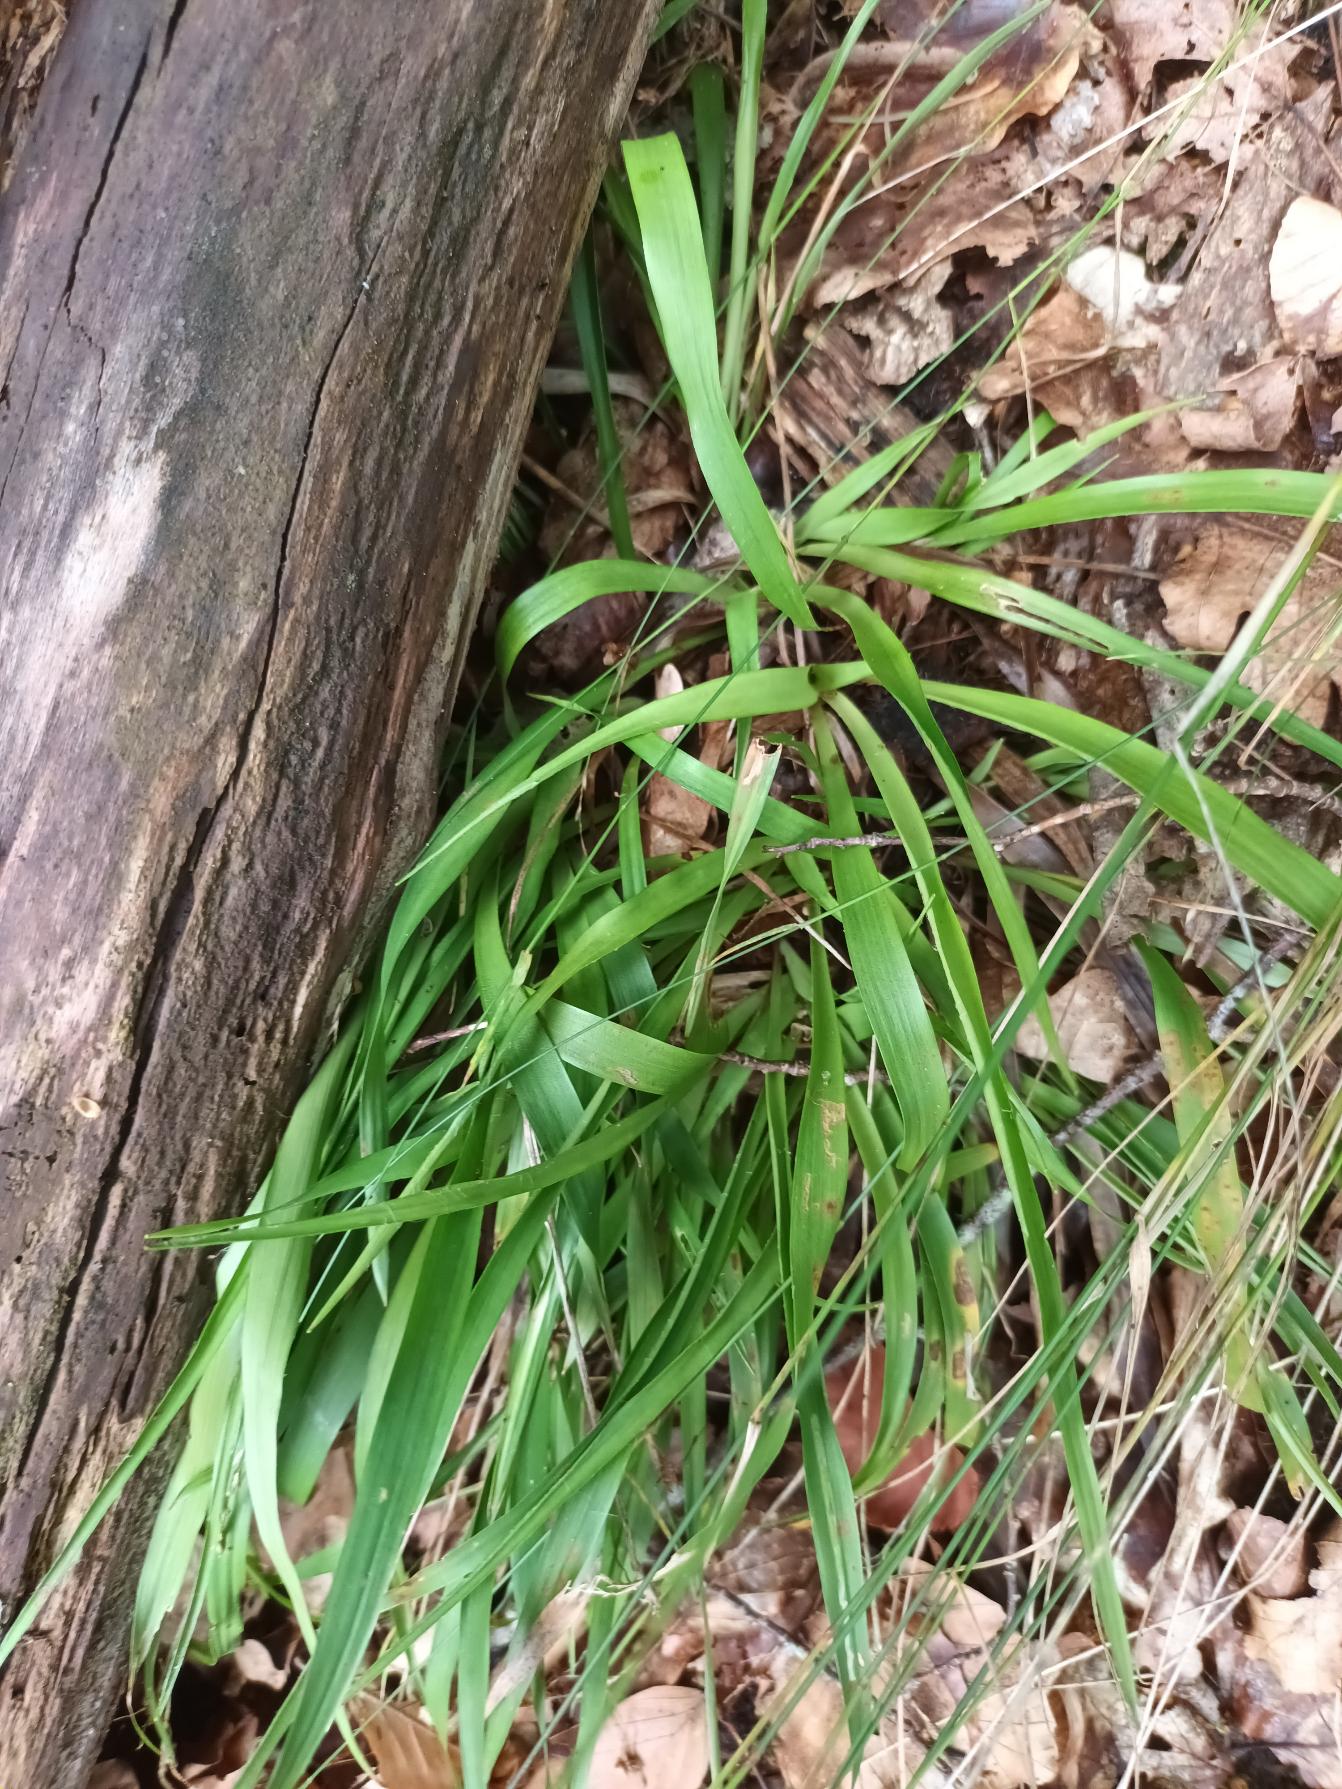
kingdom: Plantae
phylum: Tracheophyta
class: Liliopsida
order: Poales
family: Juncaceae
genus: Luzula
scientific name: Luzula pilosa
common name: Håret frytle
